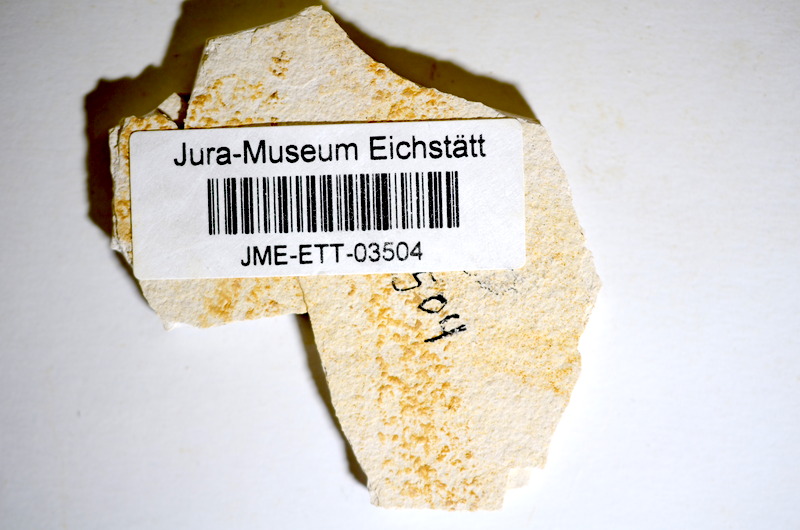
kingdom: Animalia
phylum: Chordata
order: Salmoniformes
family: Orthogonikleithridae
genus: Orthogonikleithrus
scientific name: Orthogonikleithrus hoelli
